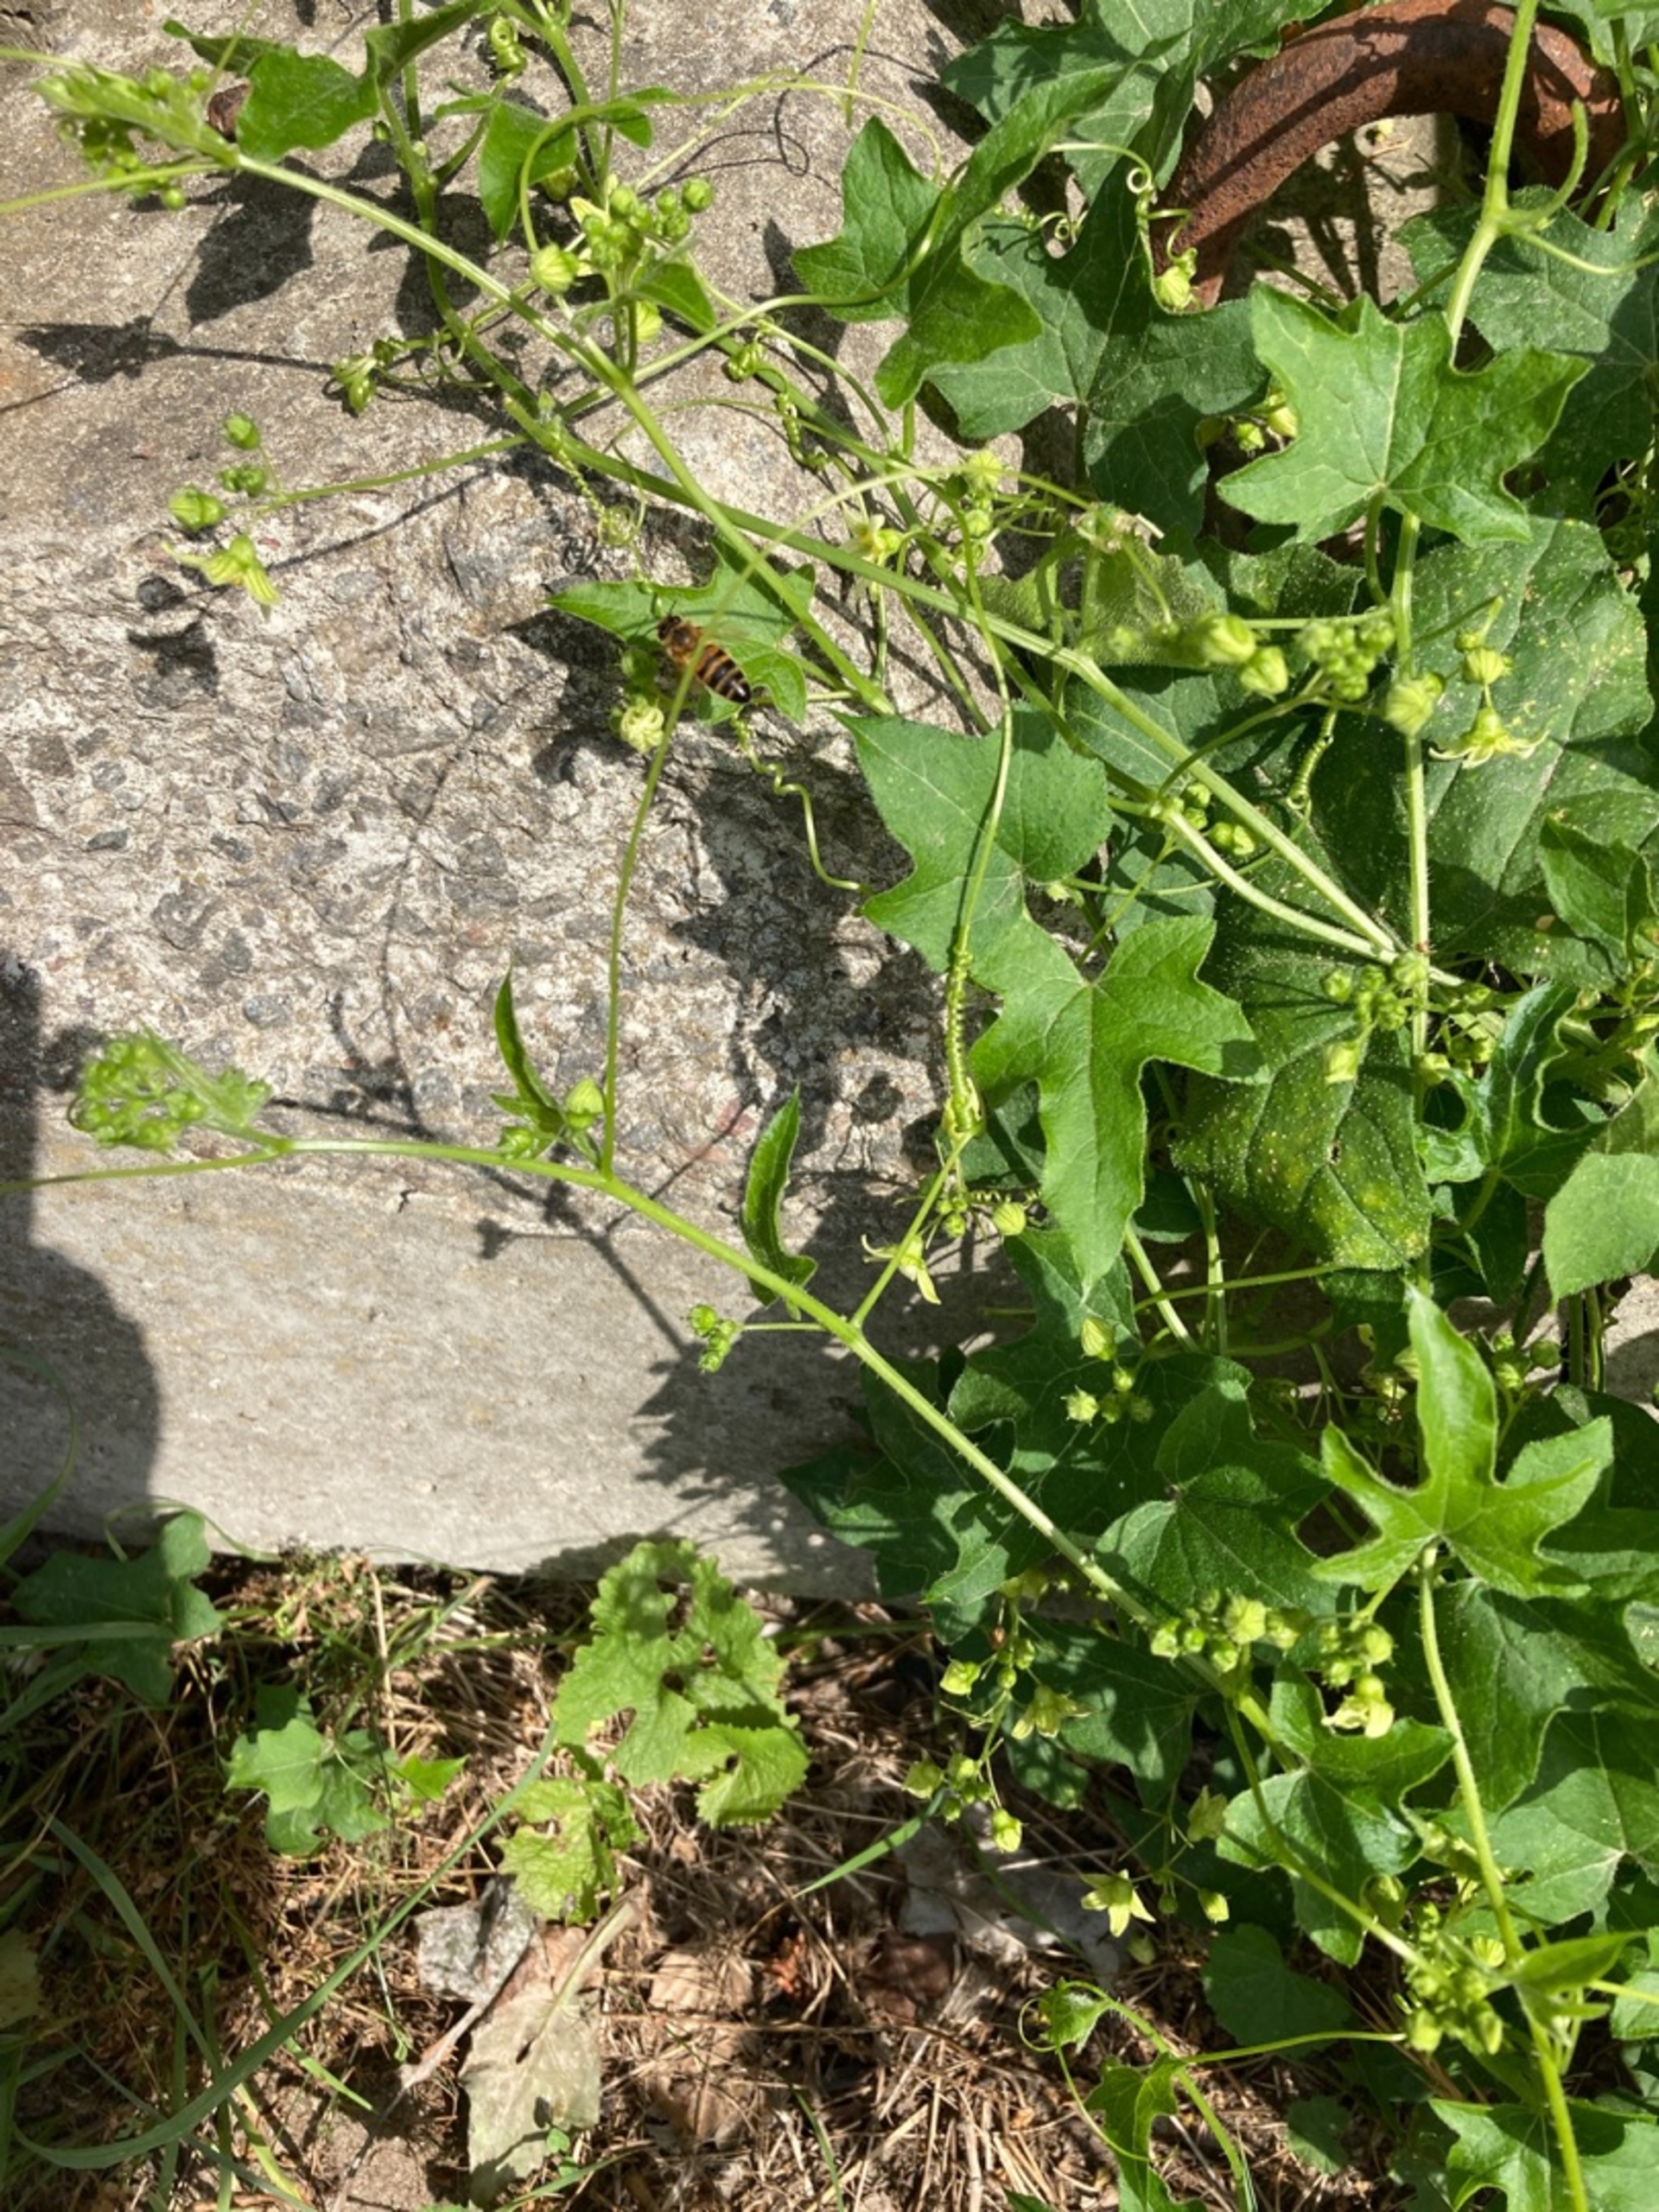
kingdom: Animalia
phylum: Arthropoda
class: Insecta
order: Hymenoptera
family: Apidae
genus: Apis
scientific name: Apis mellifera
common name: Honningbi
